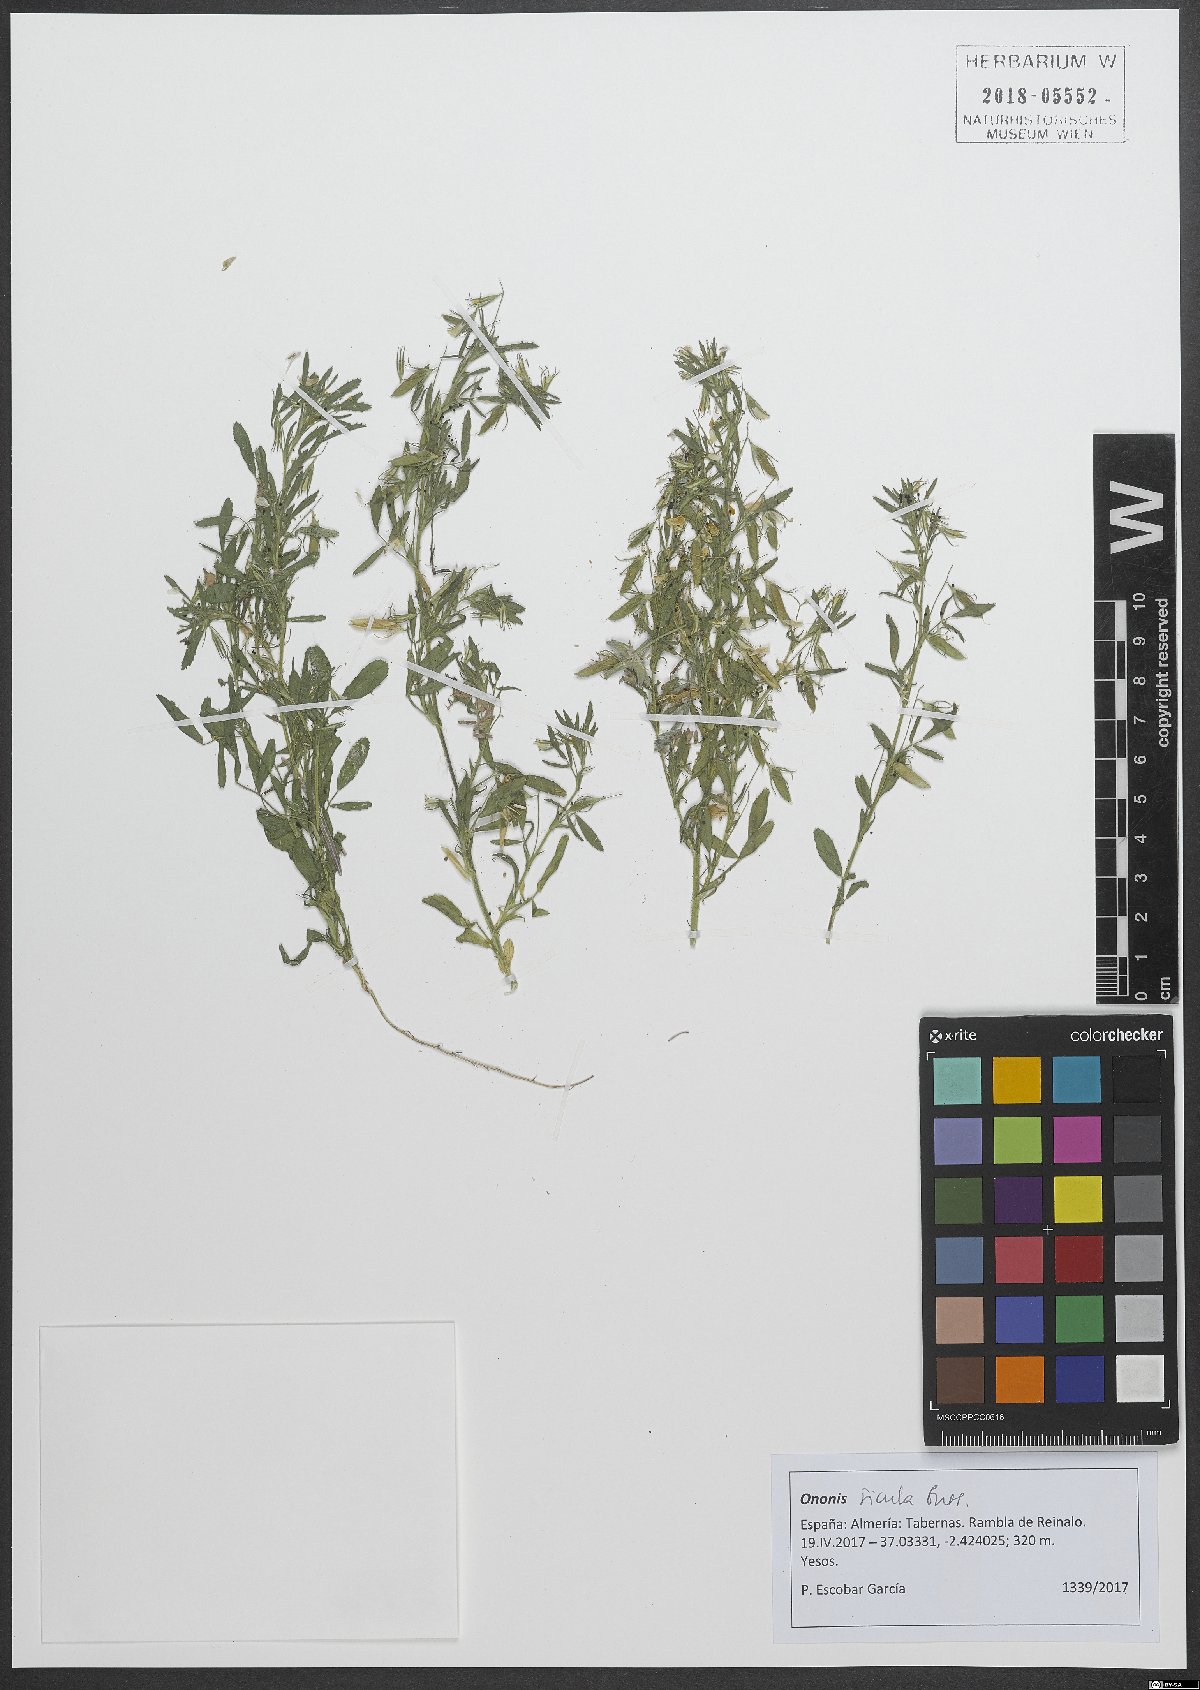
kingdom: Plantae
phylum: Tracheophyta
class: Magnoliopsida
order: Fabales
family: Fabaceae
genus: Ononis
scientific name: Ononis sicula
